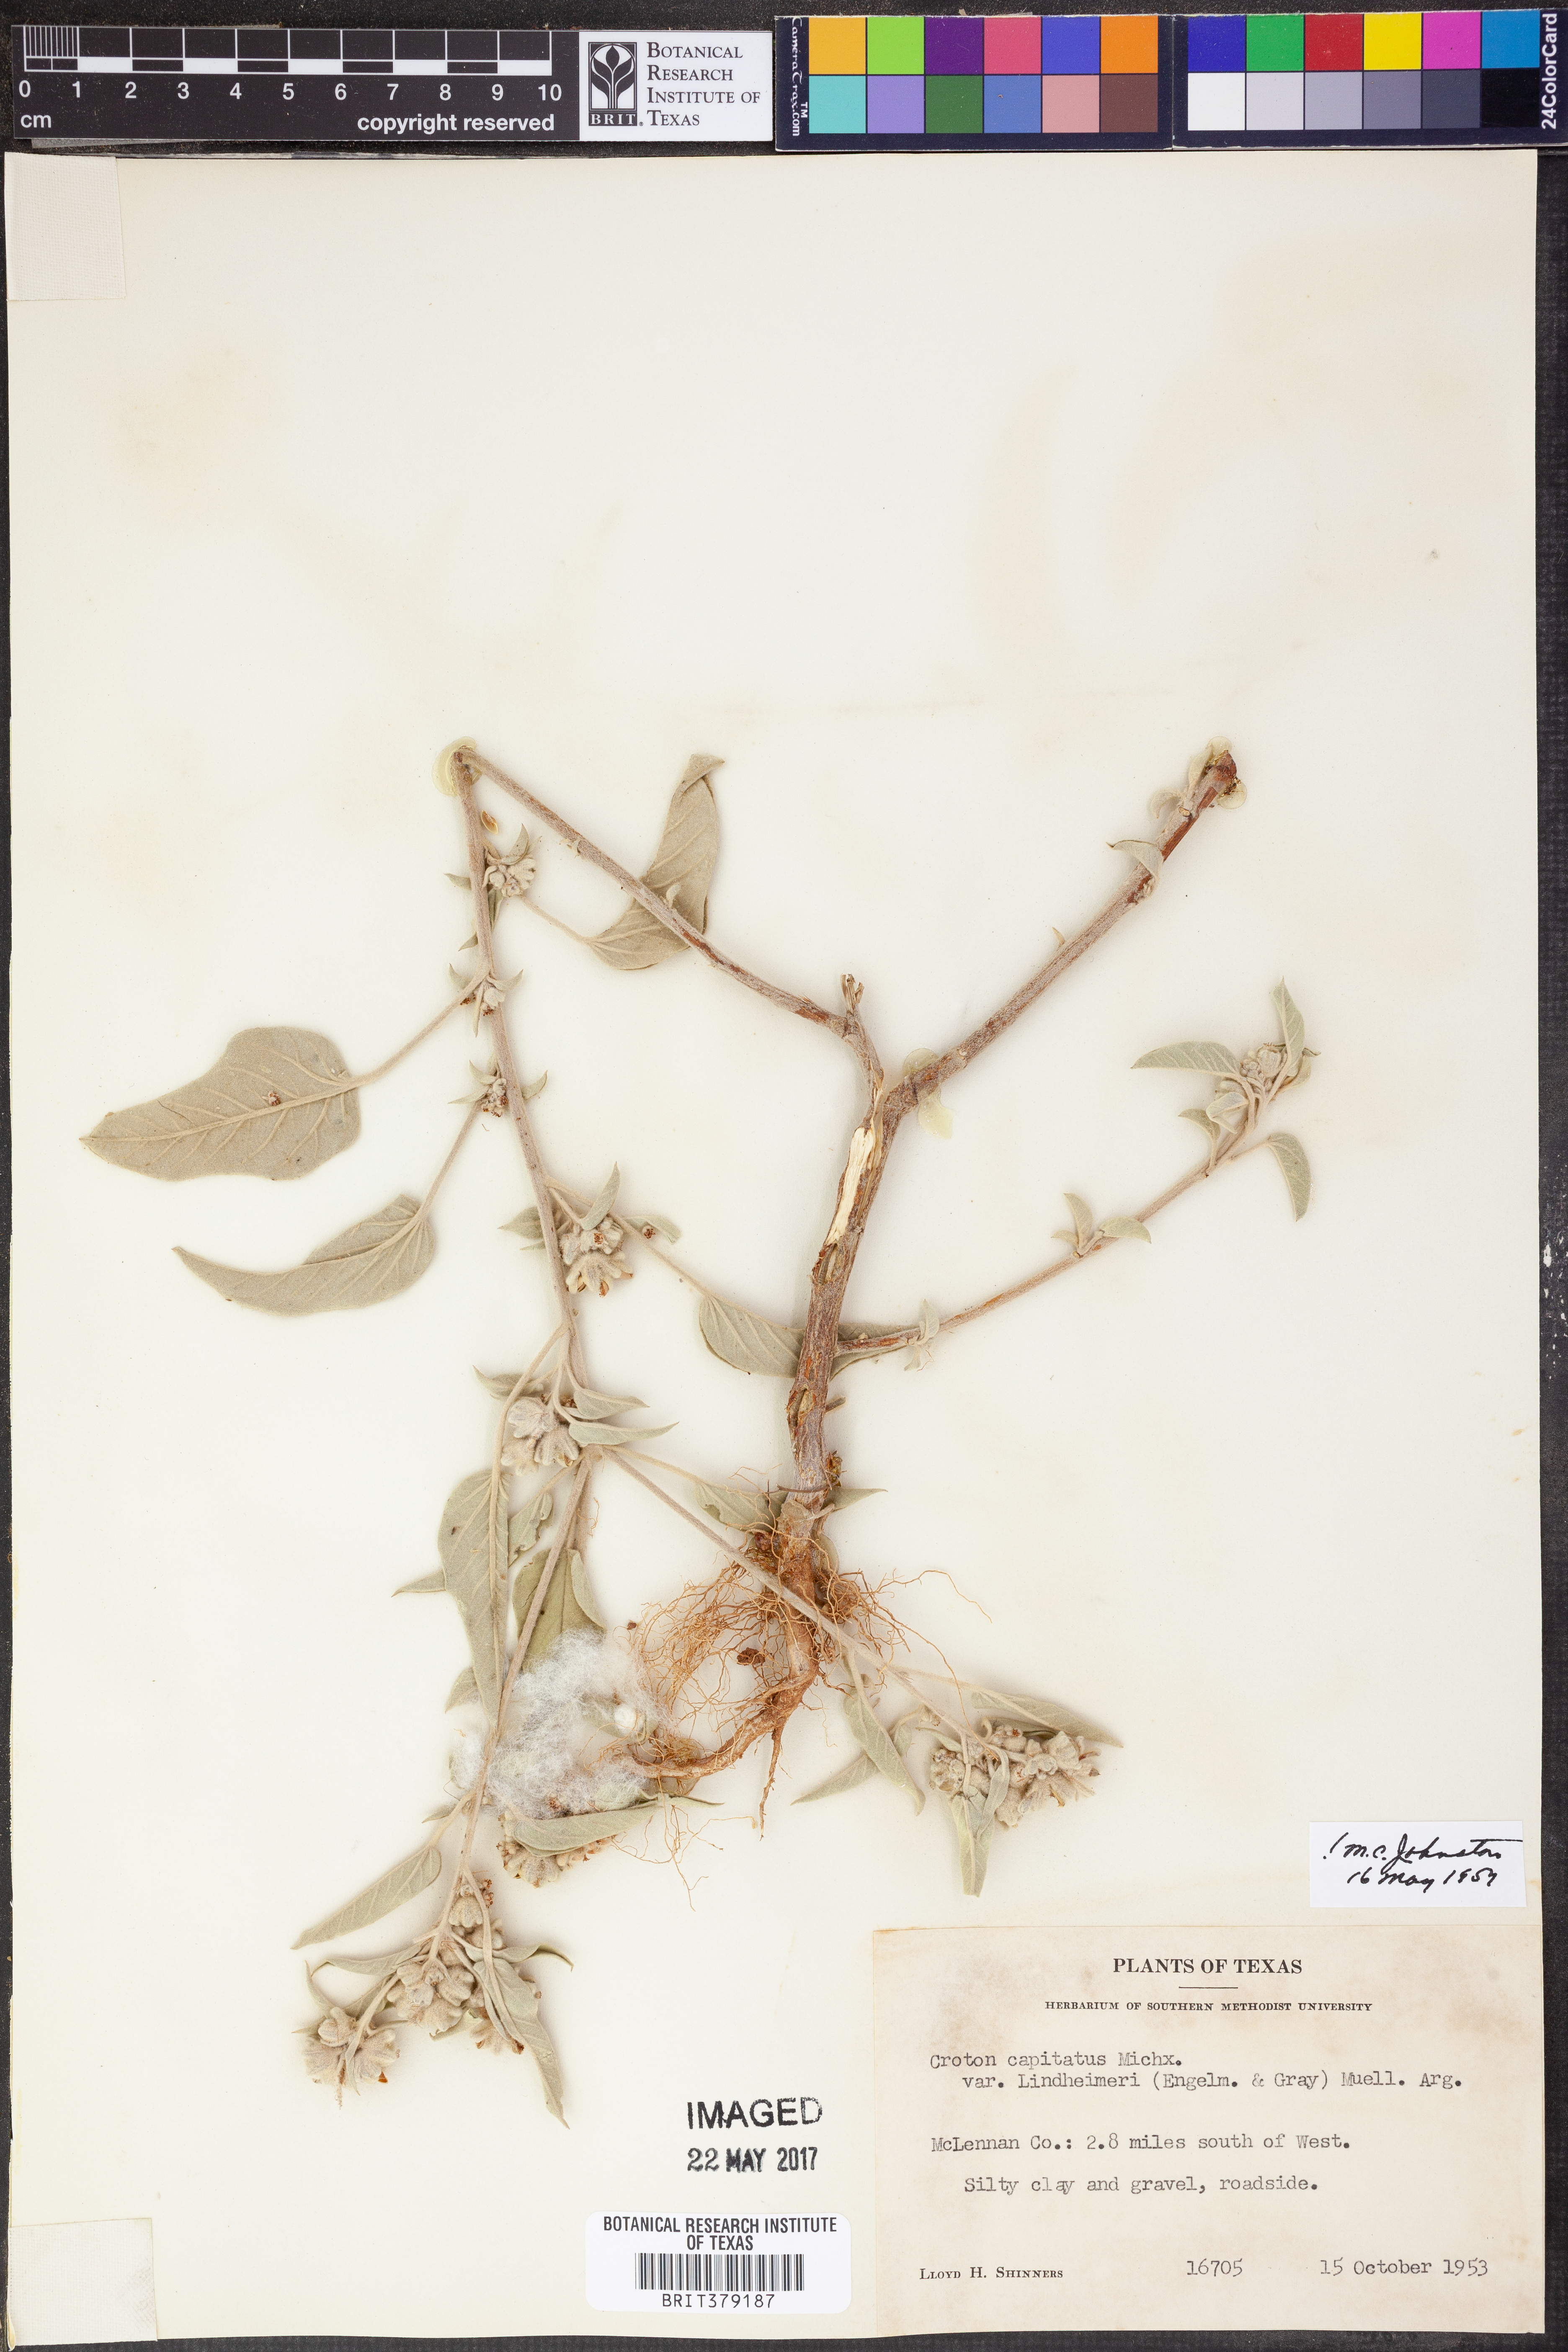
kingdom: Plantae
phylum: Tracheophyta
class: Magnoliopsida
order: Malpighiales
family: Euphorbiaceae
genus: Croton
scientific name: Croton lindheimeri
